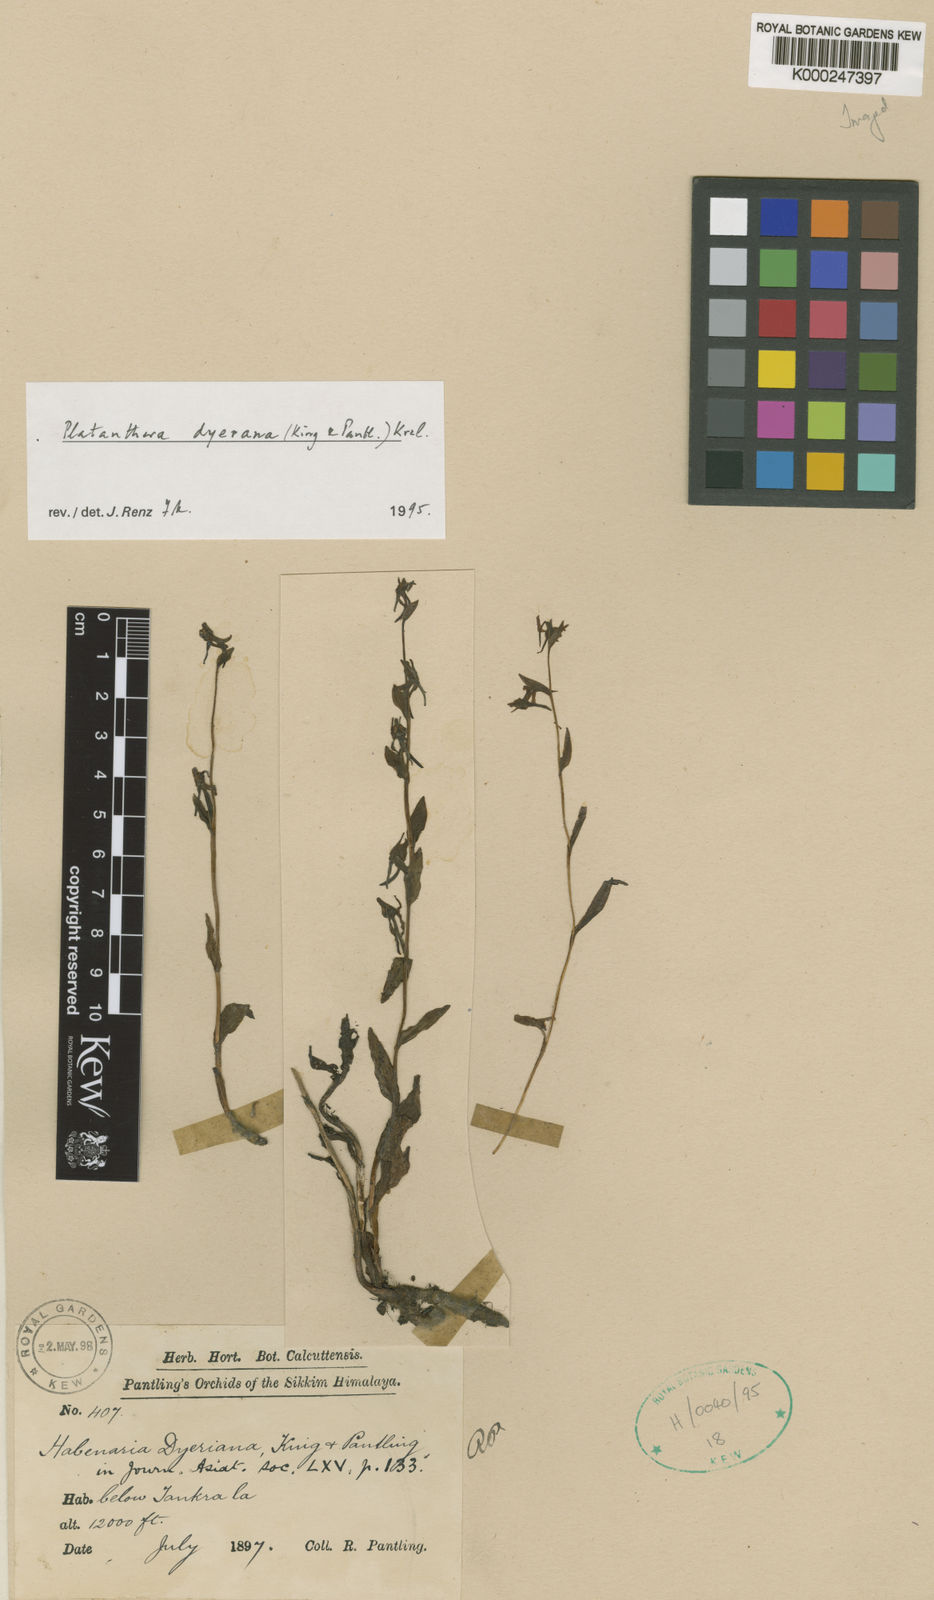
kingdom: Plantae
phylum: Tracheophyta
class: Liliopsida
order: Asparagales
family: Orchidaceae
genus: Platanthera
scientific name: Platanthera concinna
